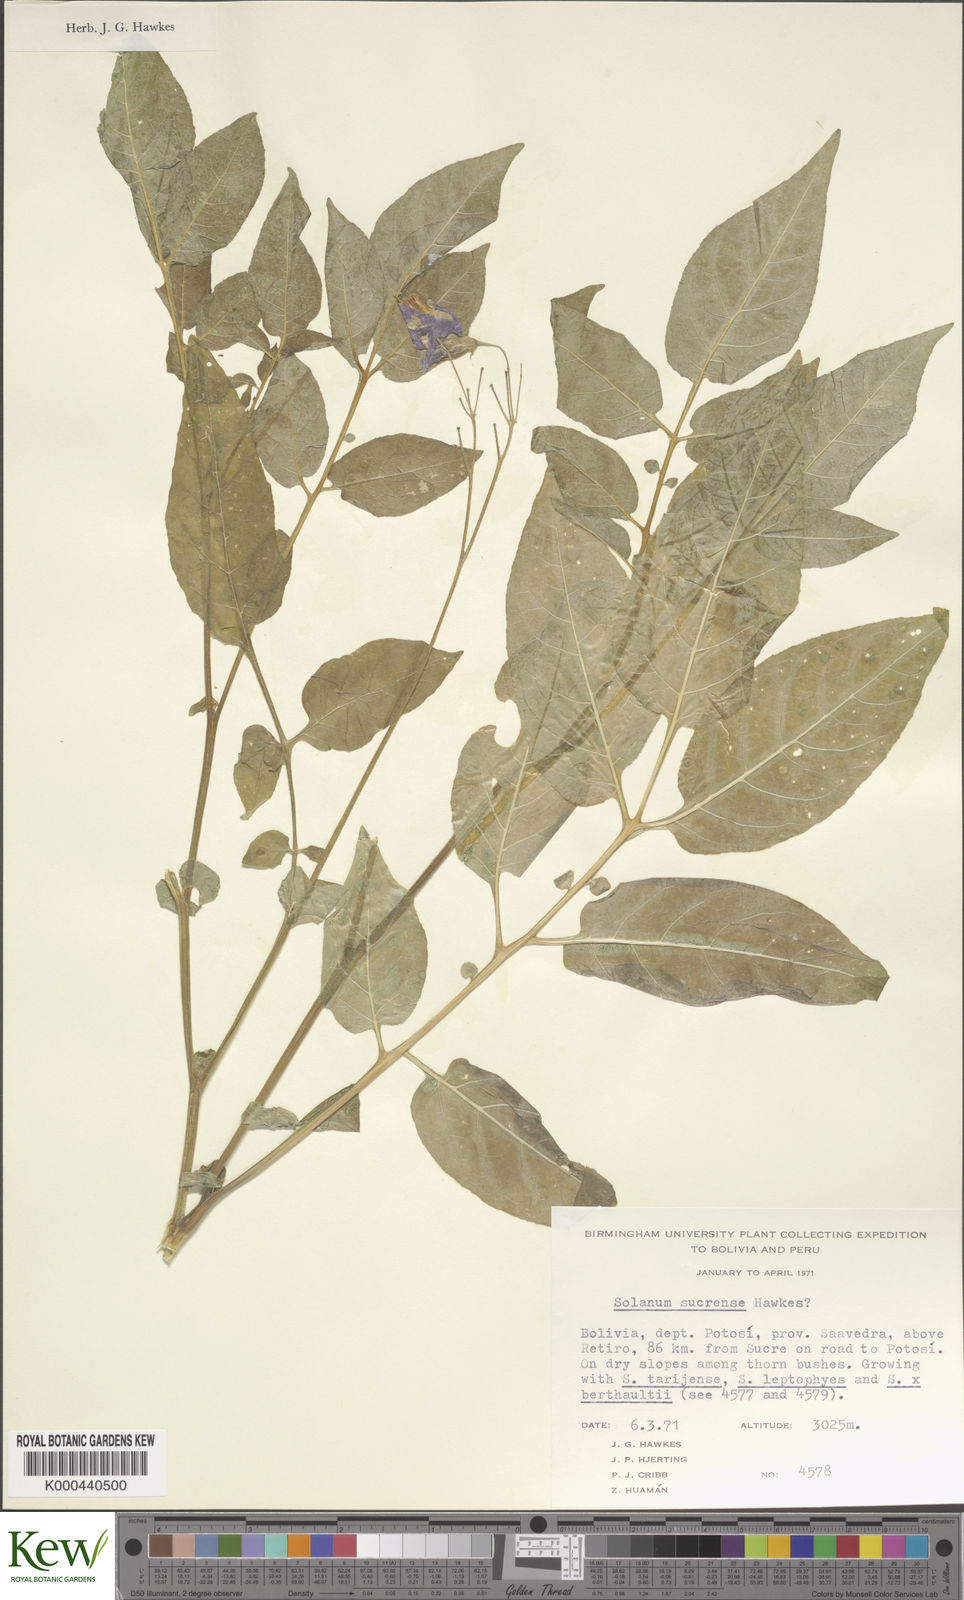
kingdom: Plantae
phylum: Tracheophyta
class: Magnoliopsida
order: Solanales
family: Solanaceae
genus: Solanum
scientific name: Solanum brevicaule
